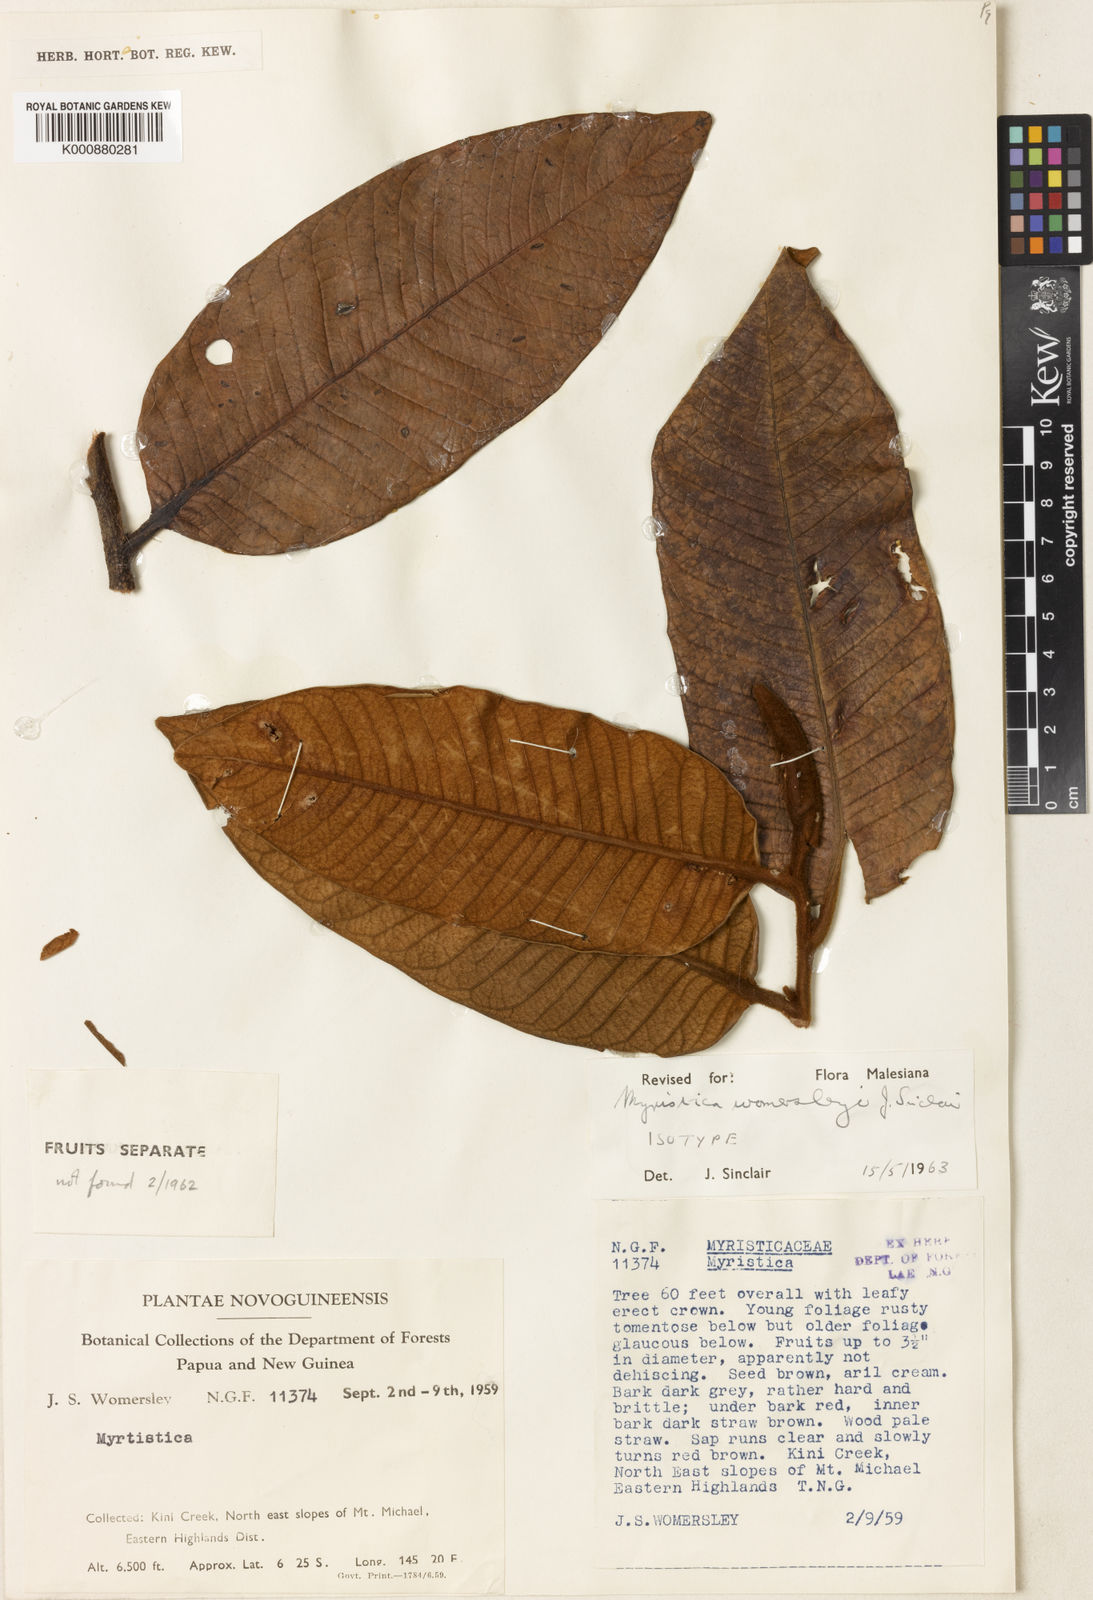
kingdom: Plantae
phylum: Tracheophyta
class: Magnoliopsida
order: Magnoliales
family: Myristicaceae
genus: Myristica
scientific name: Myristica womersleyi
